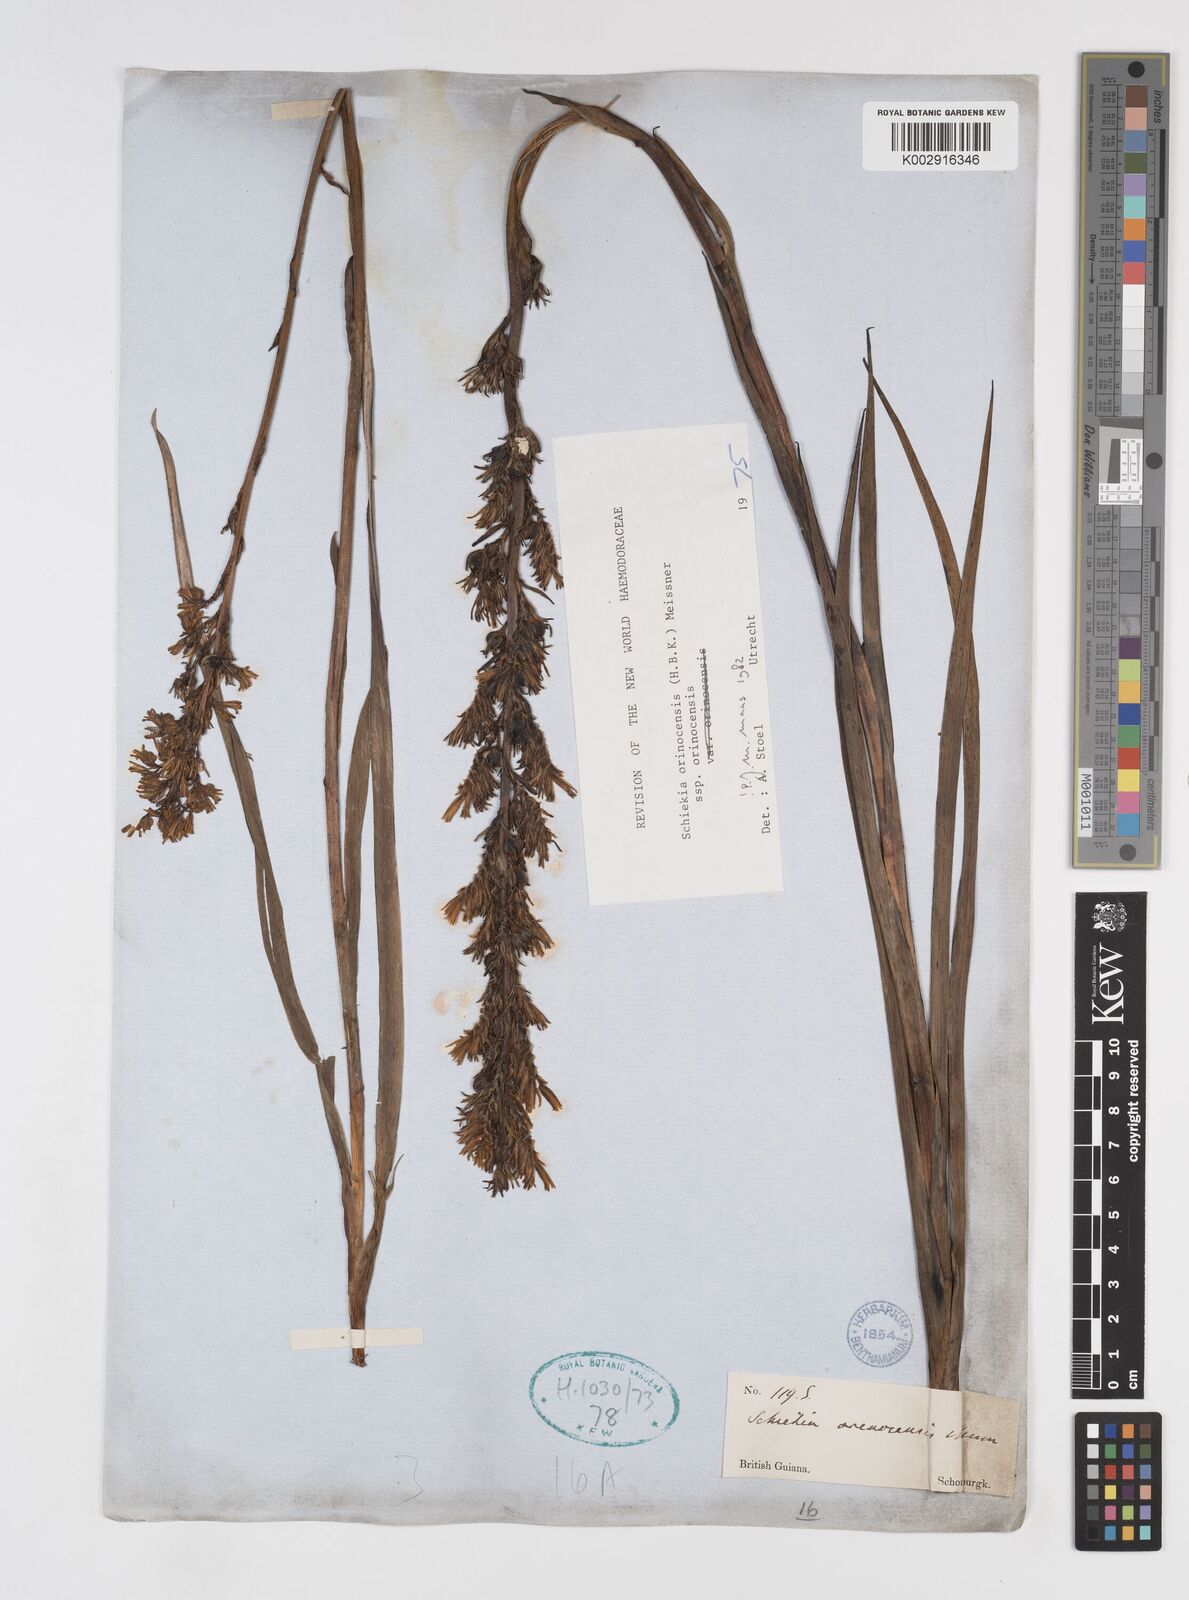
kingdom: Plantae
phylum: Tracheophyta
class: Liliopsida
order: Commelinales
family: Haemodoraceae
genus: Schiekia
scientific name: Schiekia orinocensis
